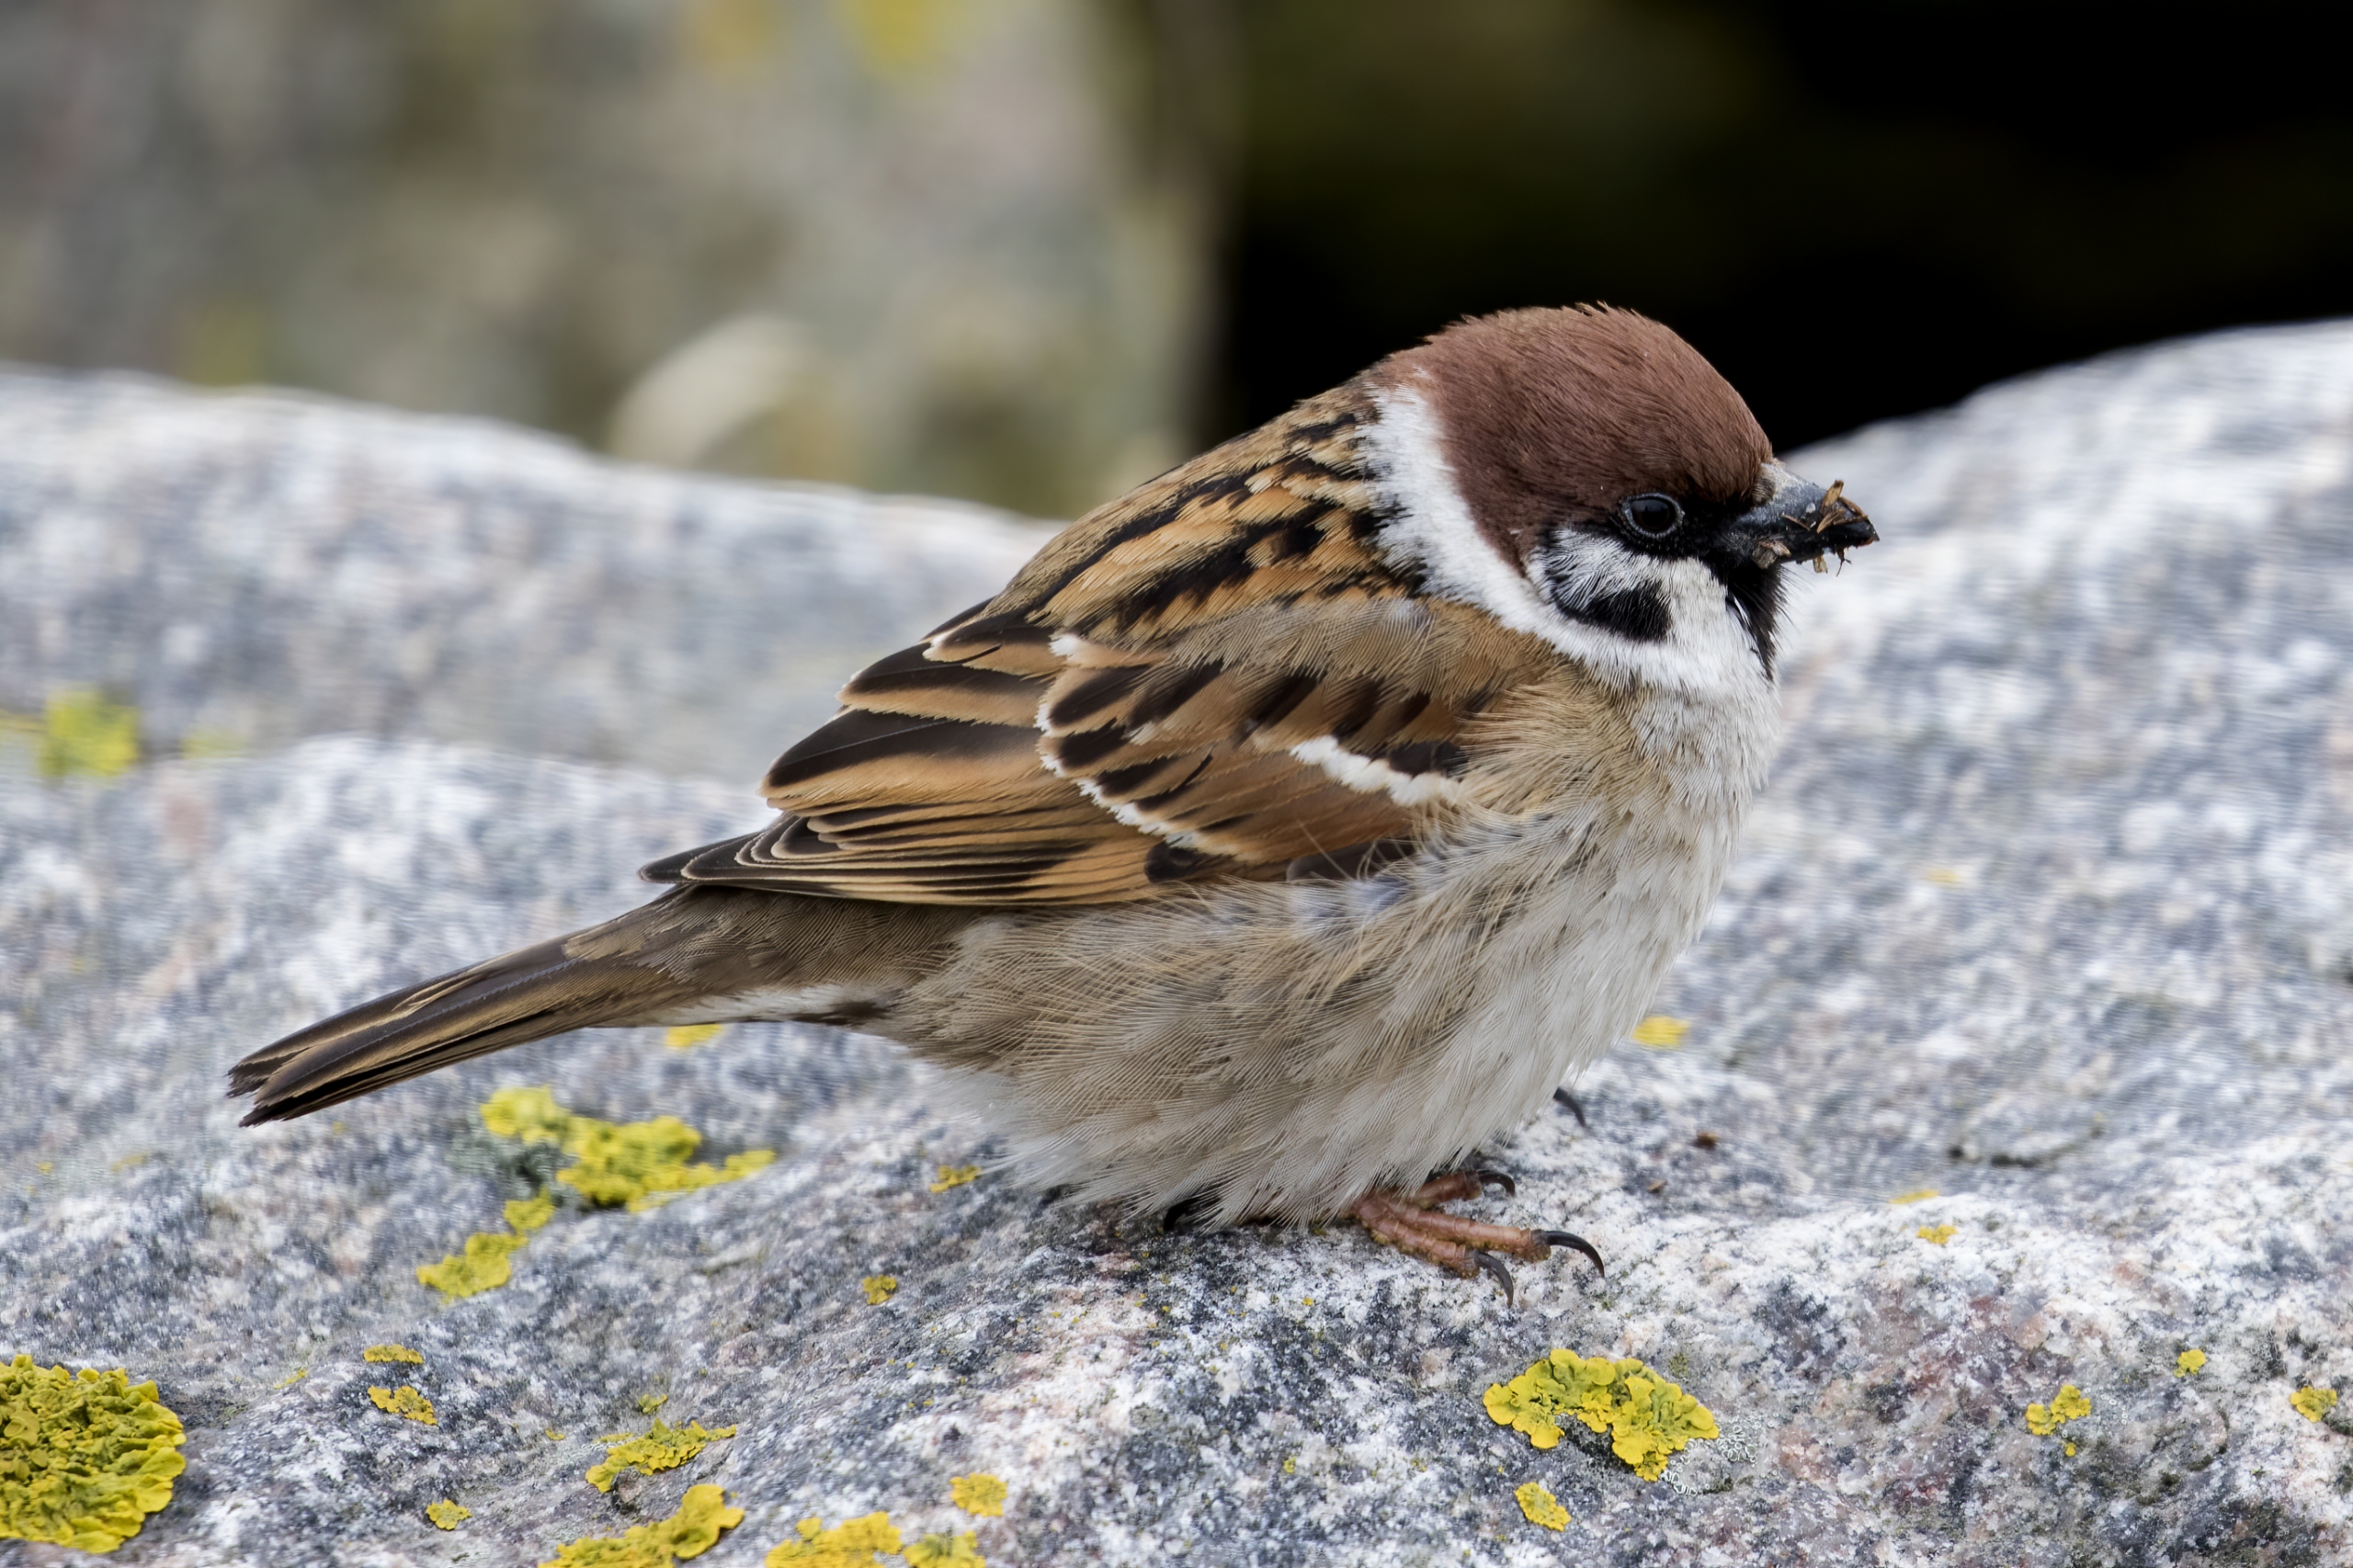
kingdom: Animalia
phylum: Chordata
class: Aves
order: Passeriformes
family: Passeridae
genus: Passer
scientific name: Passer montanus
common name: Skovspurv
